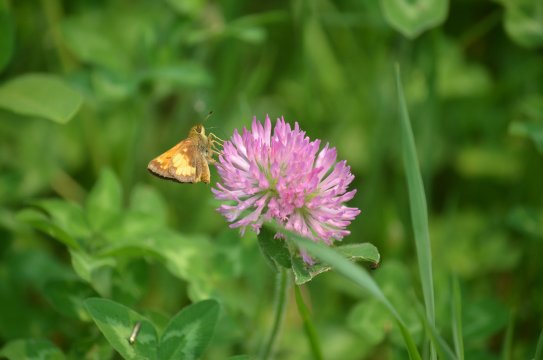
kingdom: Animalia
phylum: Arthropoda
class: Insecta
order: Lepidoptera
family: Hesperiidae
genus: Lon
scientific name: Lon hobomok
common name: Hobomok Skipper
